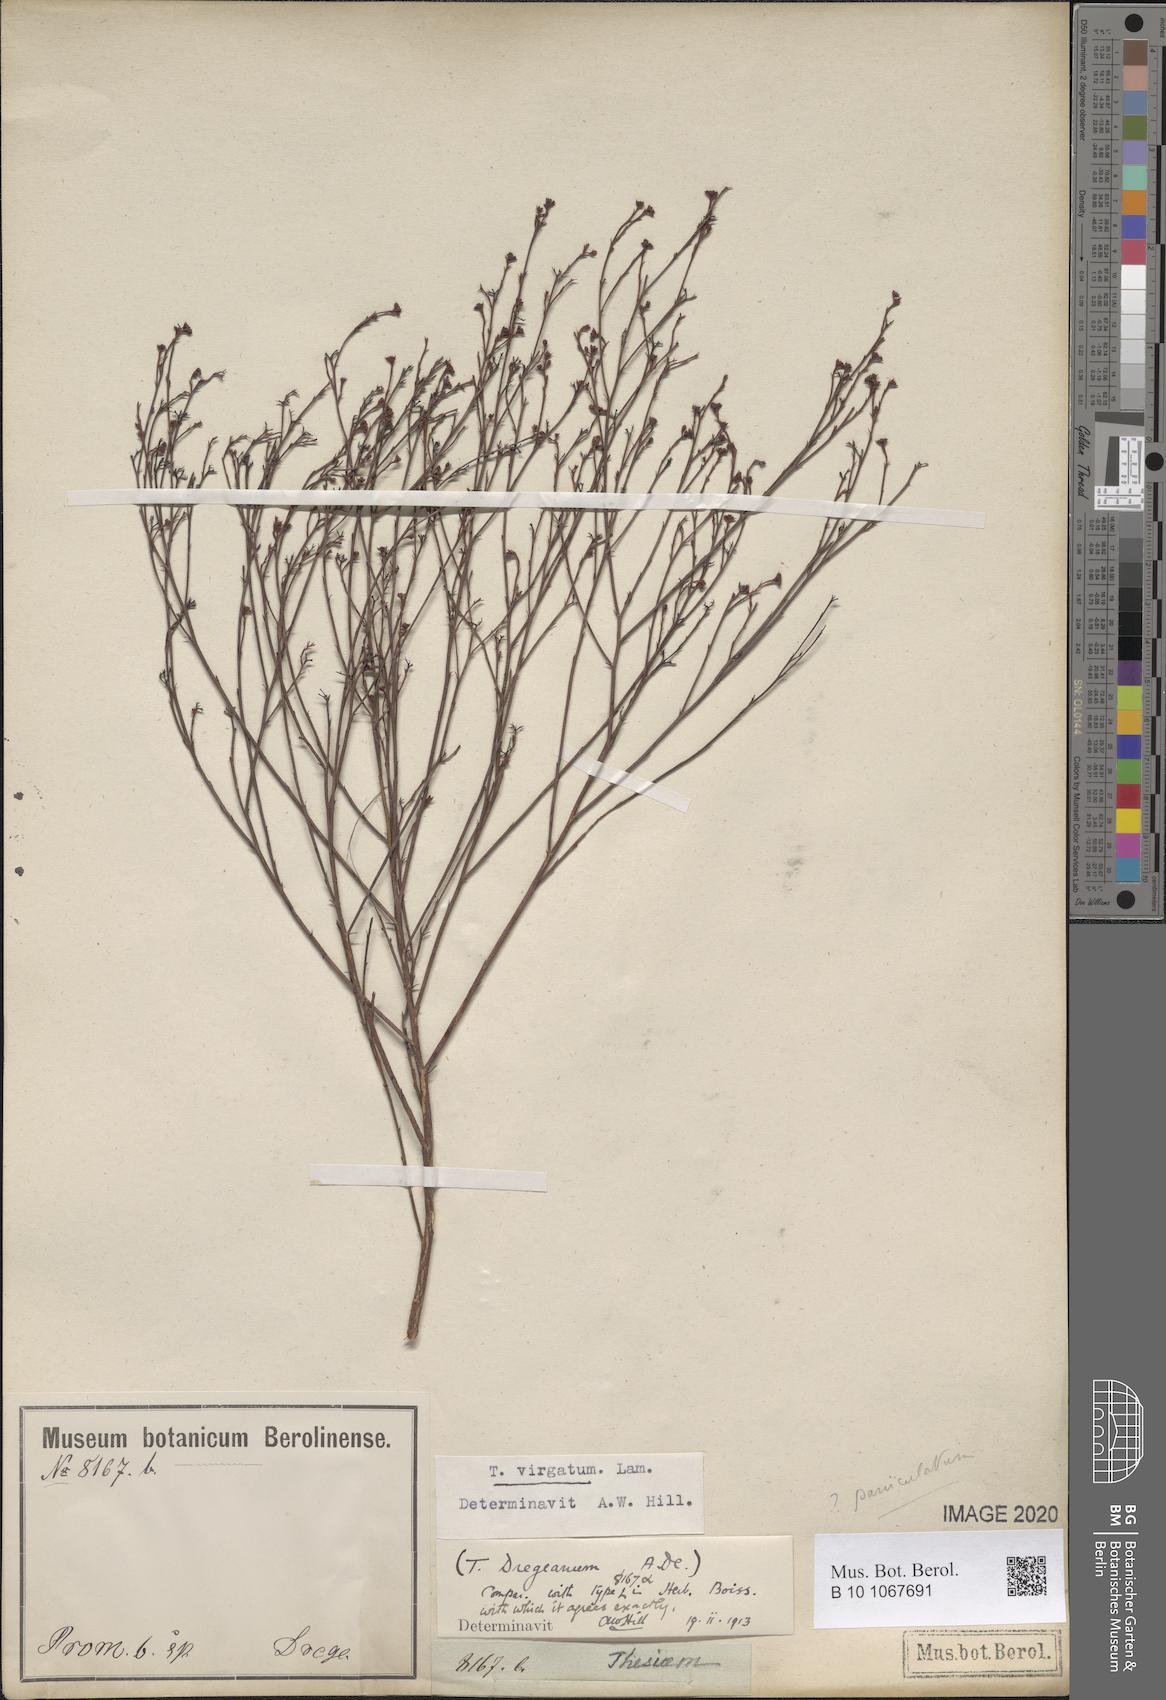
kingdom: Plantae
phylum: Tracheophyta
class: Magnoliopsida
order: Santalales
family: Thesiaceae
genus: Thesium
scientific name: Thesium virgatum
